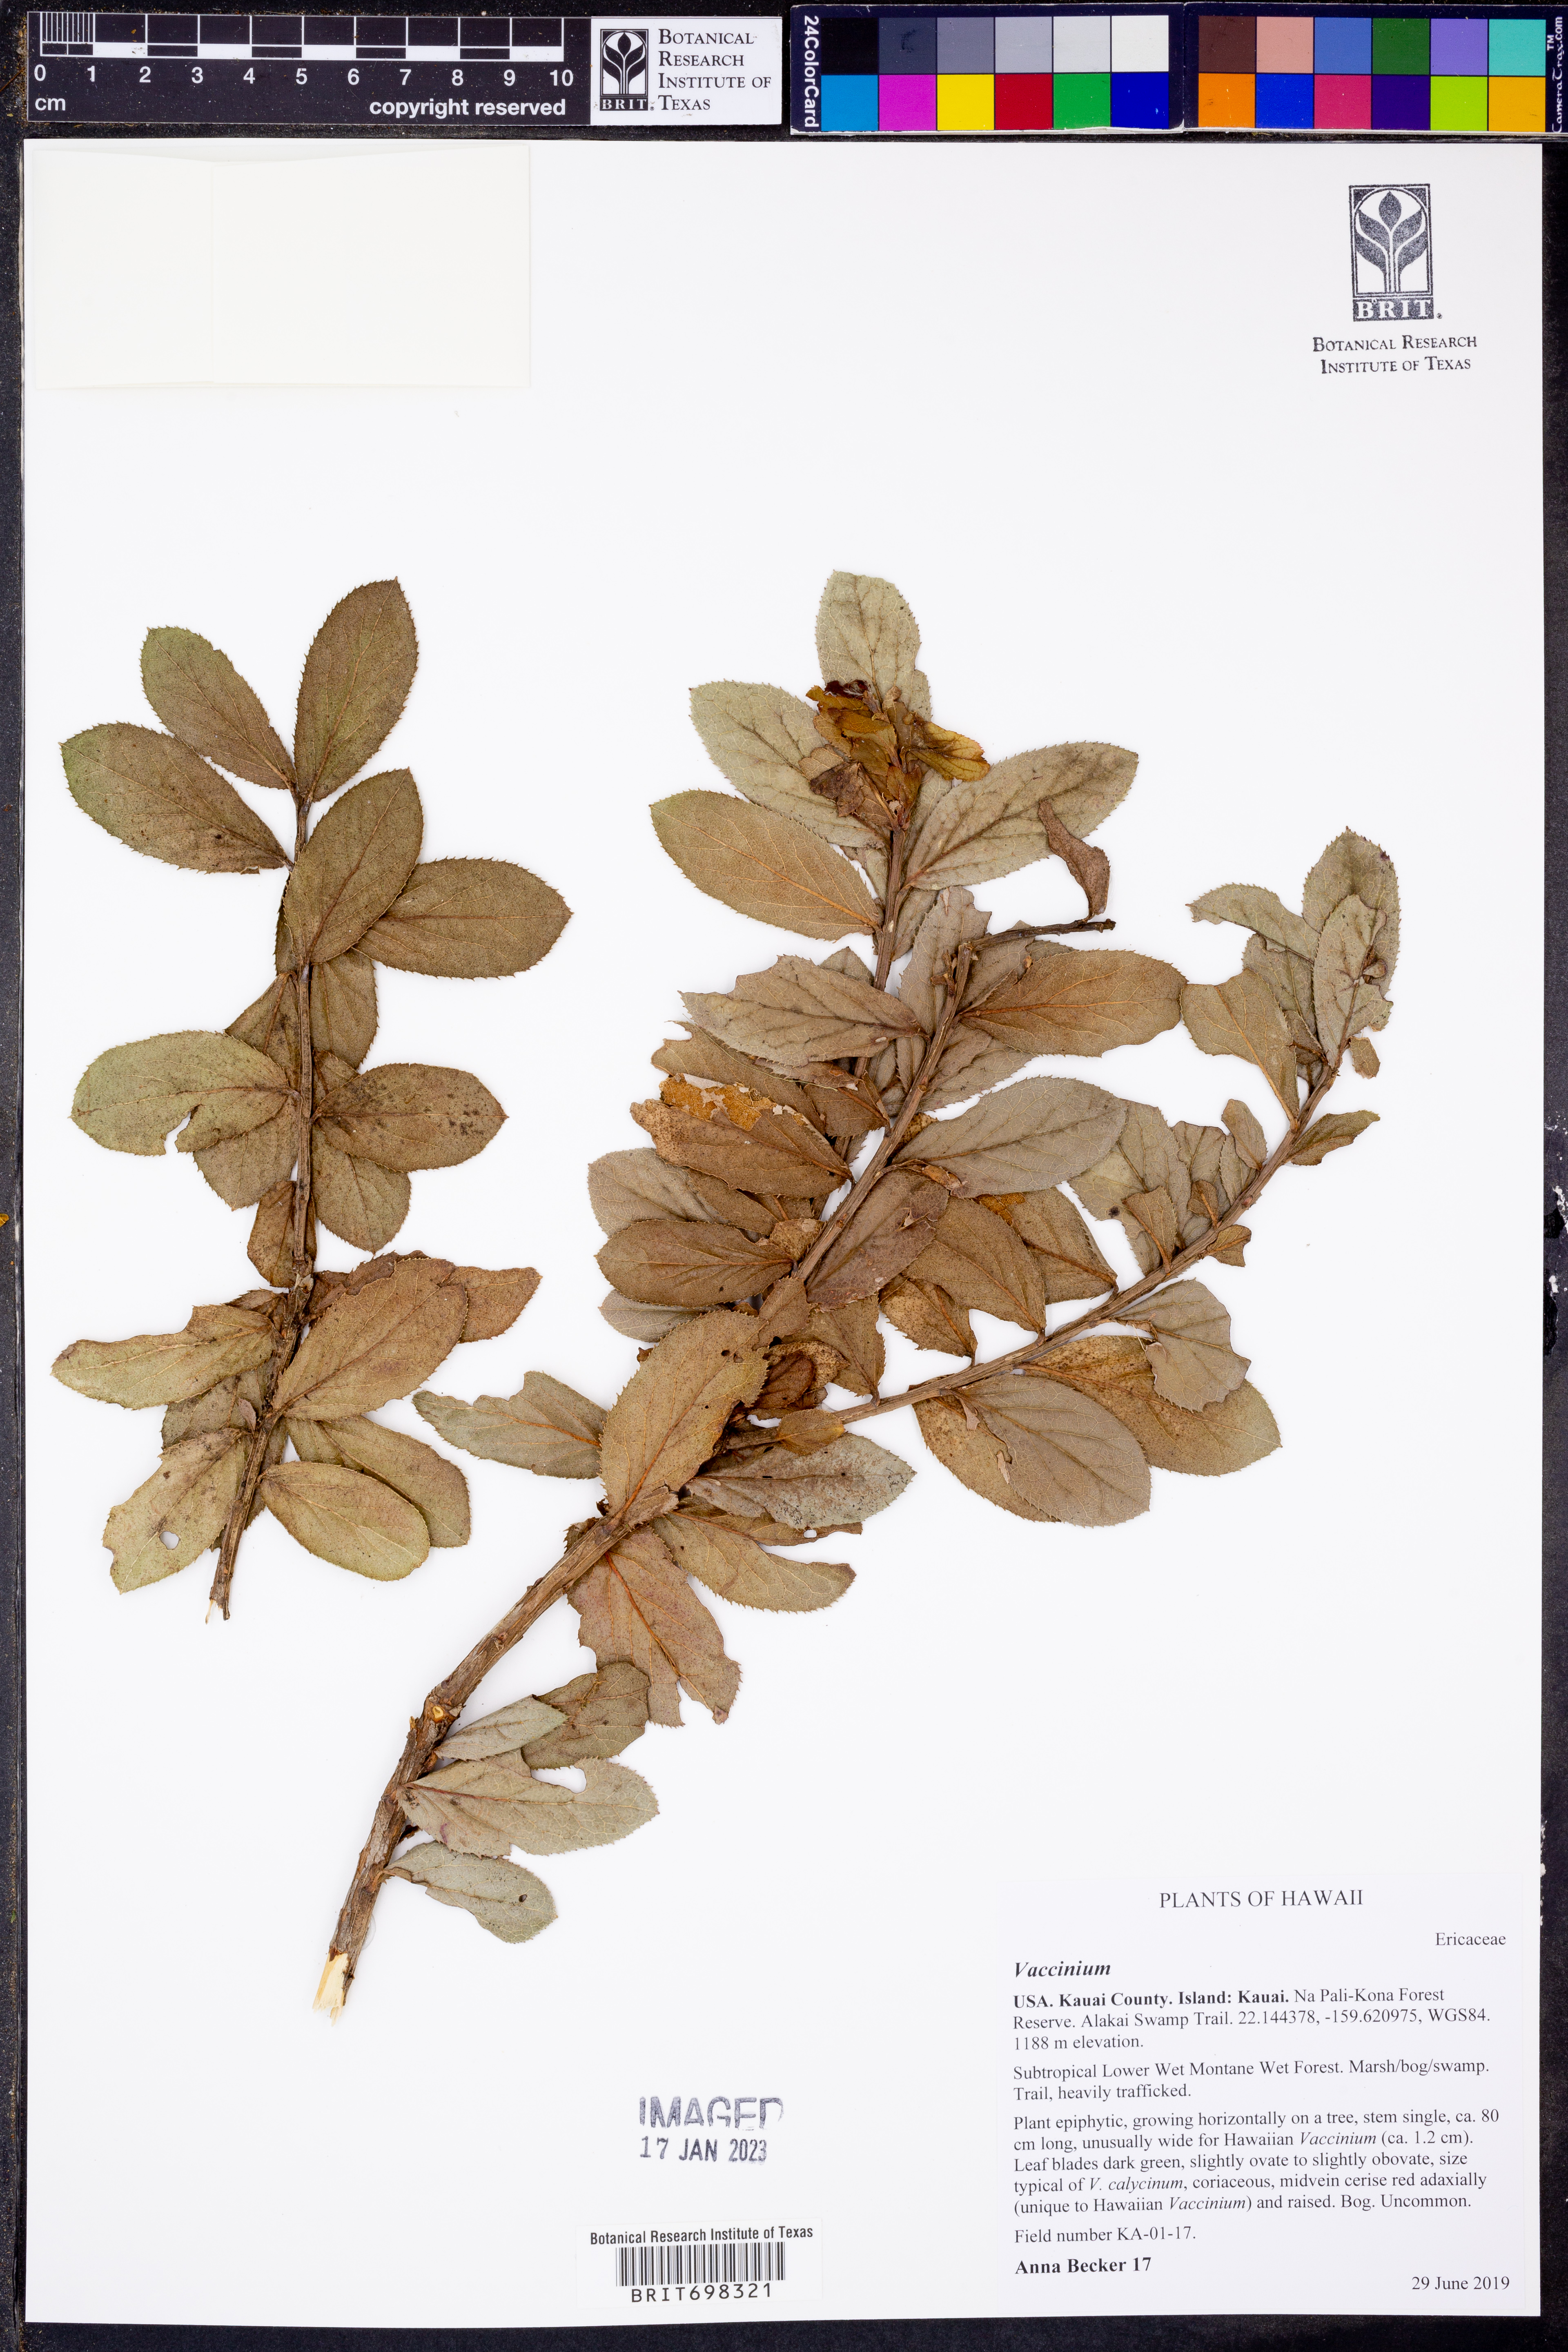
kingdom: Plantae
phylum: Tracheophyta
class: Magnoliopsida
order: Ericales
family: Ericaceae
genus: Vaccinium
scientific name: Vaccinium
